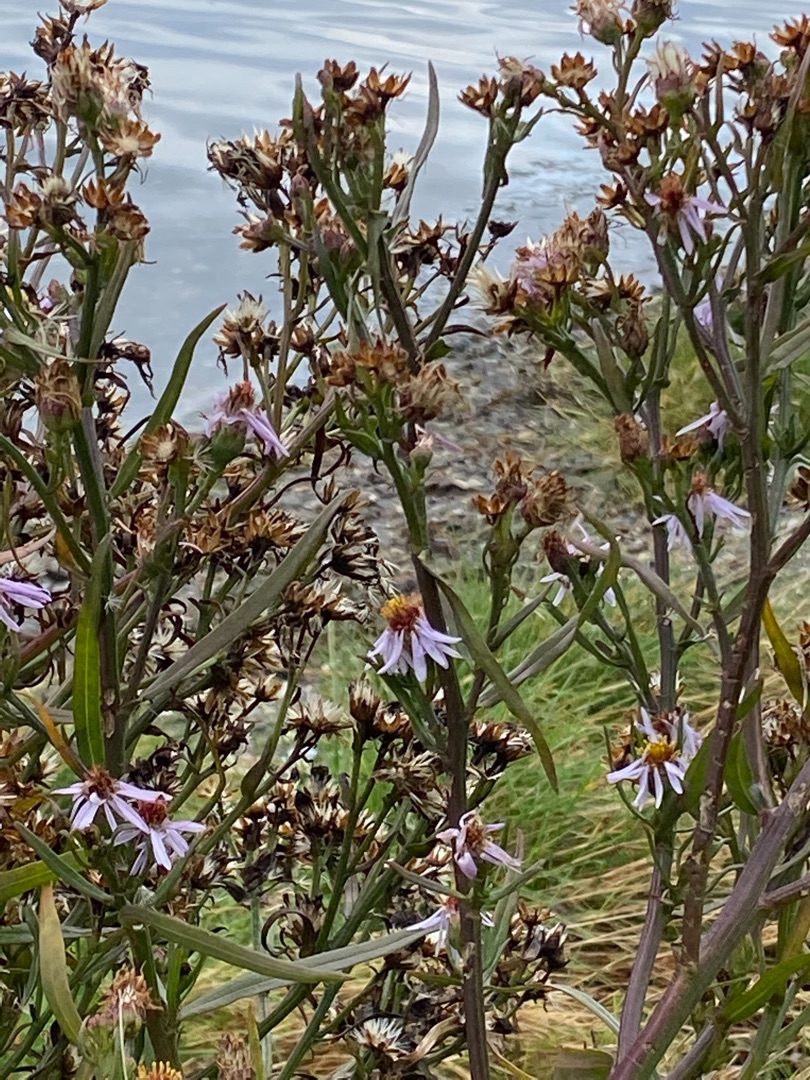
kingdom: Plantae
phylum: Tracheophyta
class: Magnoliopsida
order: Asterales
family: Asteraceae
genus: Tripolium
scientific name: Tripolium pannonicum
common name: Strandasters
